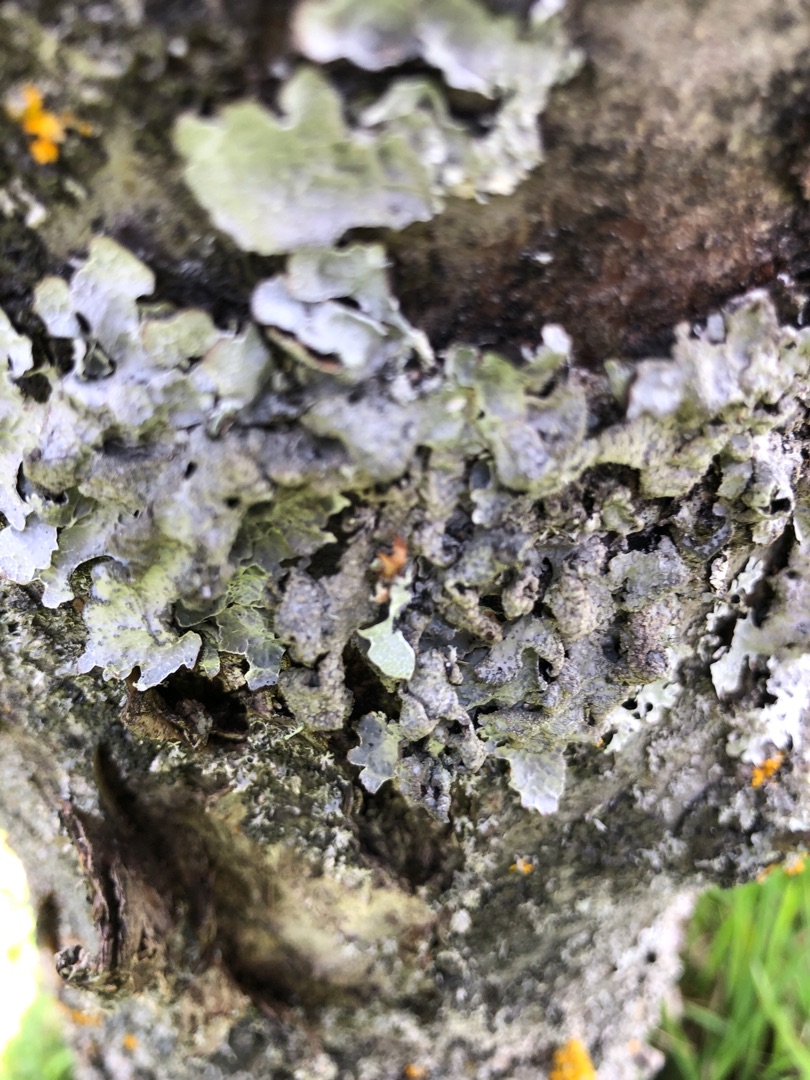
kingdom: Fungi
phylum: Ascomycota
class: Lecanoromycetes
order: Lecanorales
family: Parmeliaceae
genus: Parmelia
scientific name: Parmelia sulcata
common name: Rynket skållav
